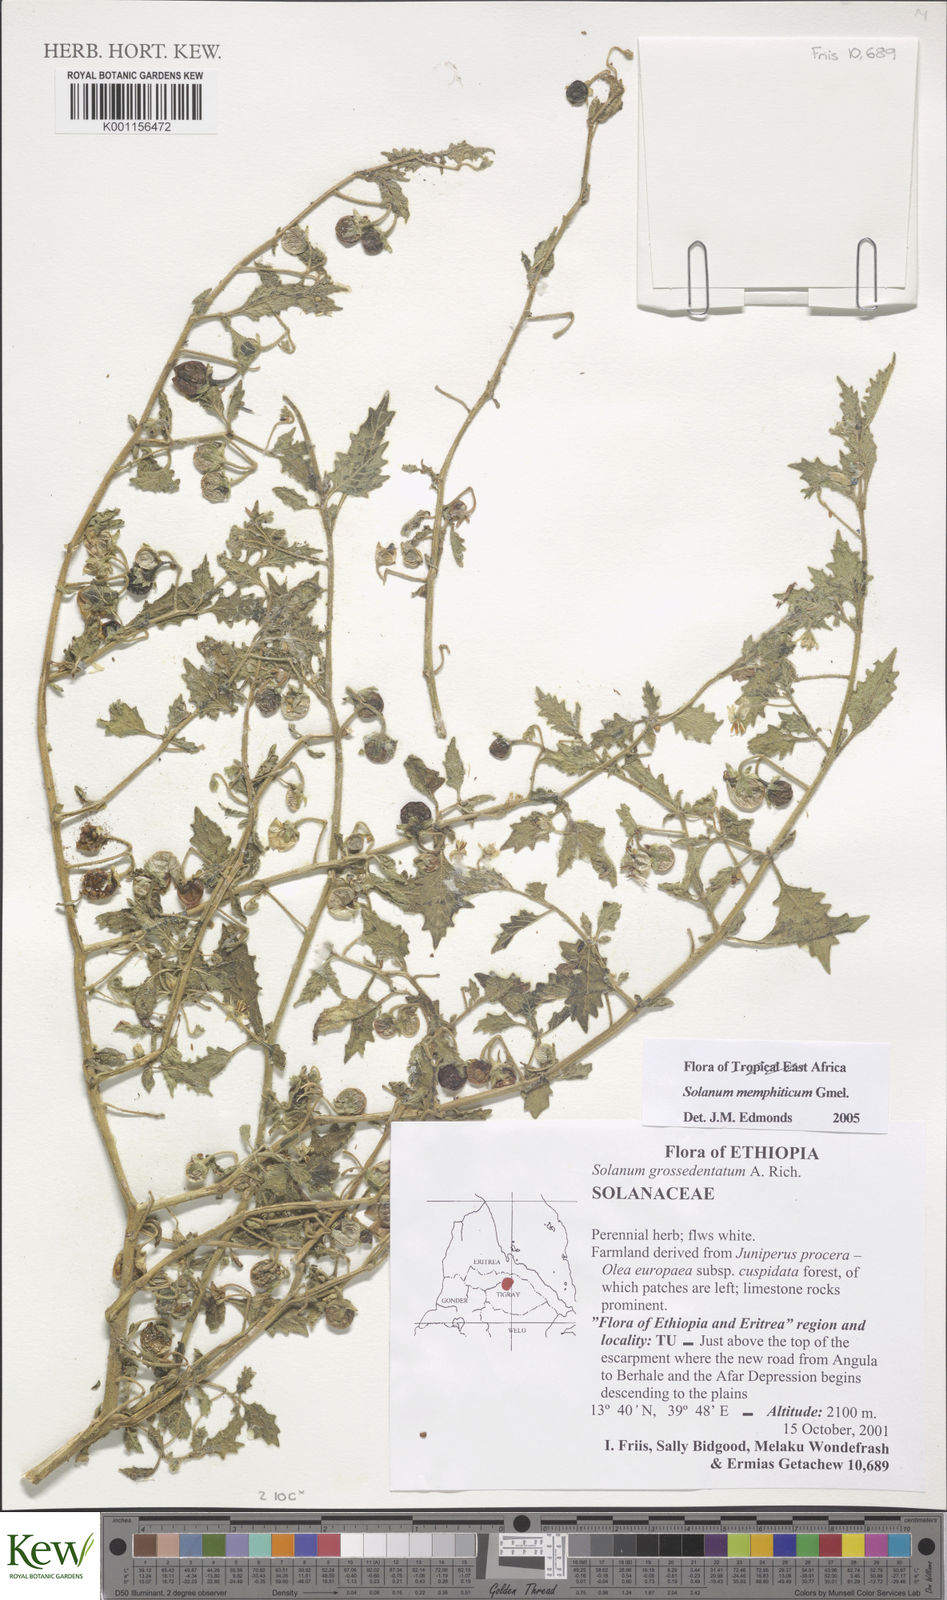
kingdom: Plantae
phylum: Tracheophyta
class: Magnoliopsida
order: Solanales
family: Solanaceae
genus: Solanum
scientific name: Solanum memphiticum
